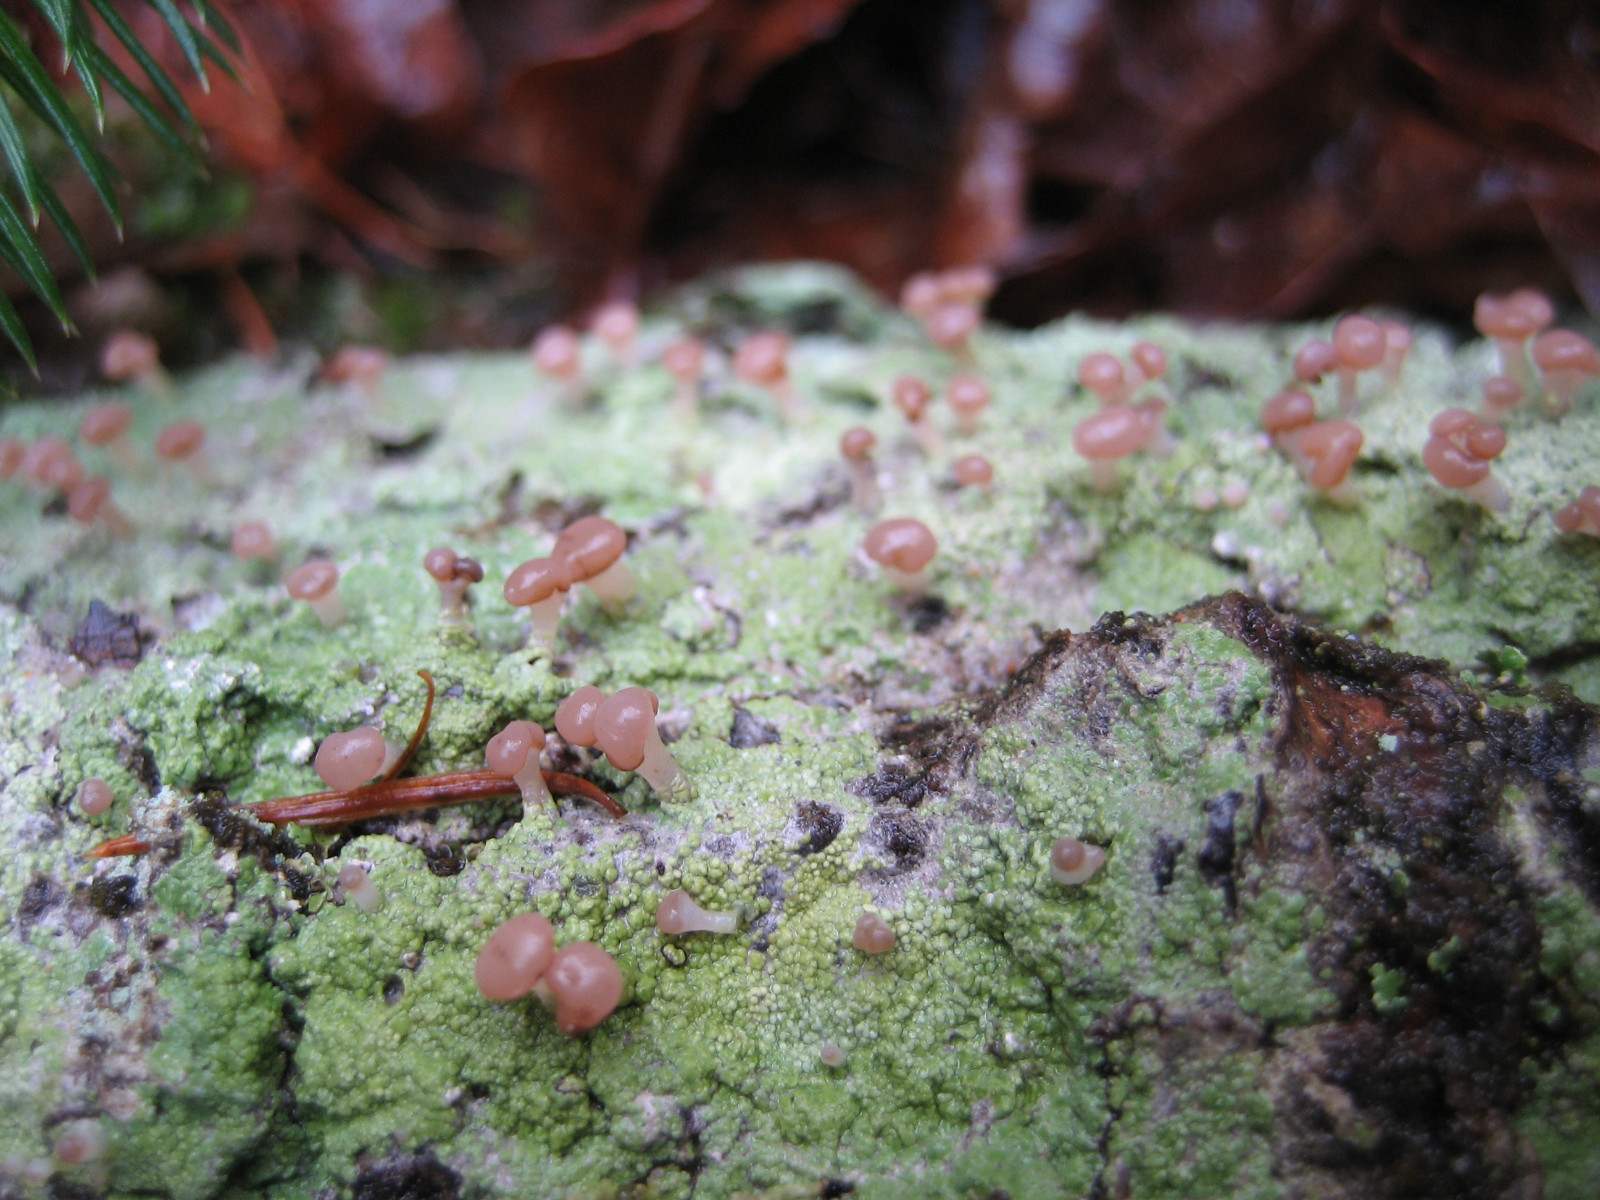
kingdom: Fungi
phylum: Ascomycota
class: Lecanoromycetes
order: Baeomycetales
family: Baeomycetaceae
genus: Baeomyces
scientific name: Baeomyces rufus
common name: rødbrun svampelav
